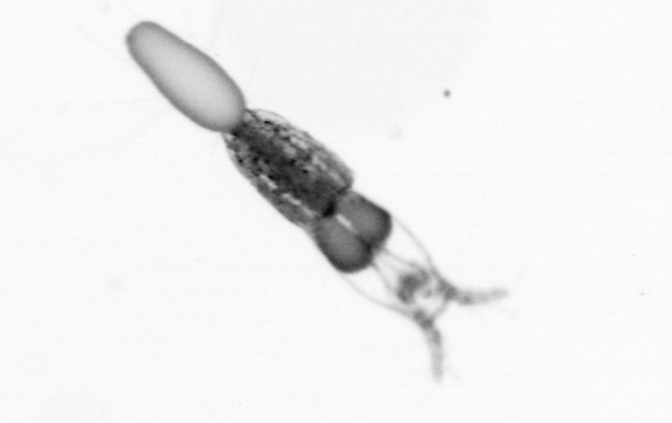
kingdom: Animalia
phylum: Arthropoda
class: Copepoda
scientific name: Copepoda
